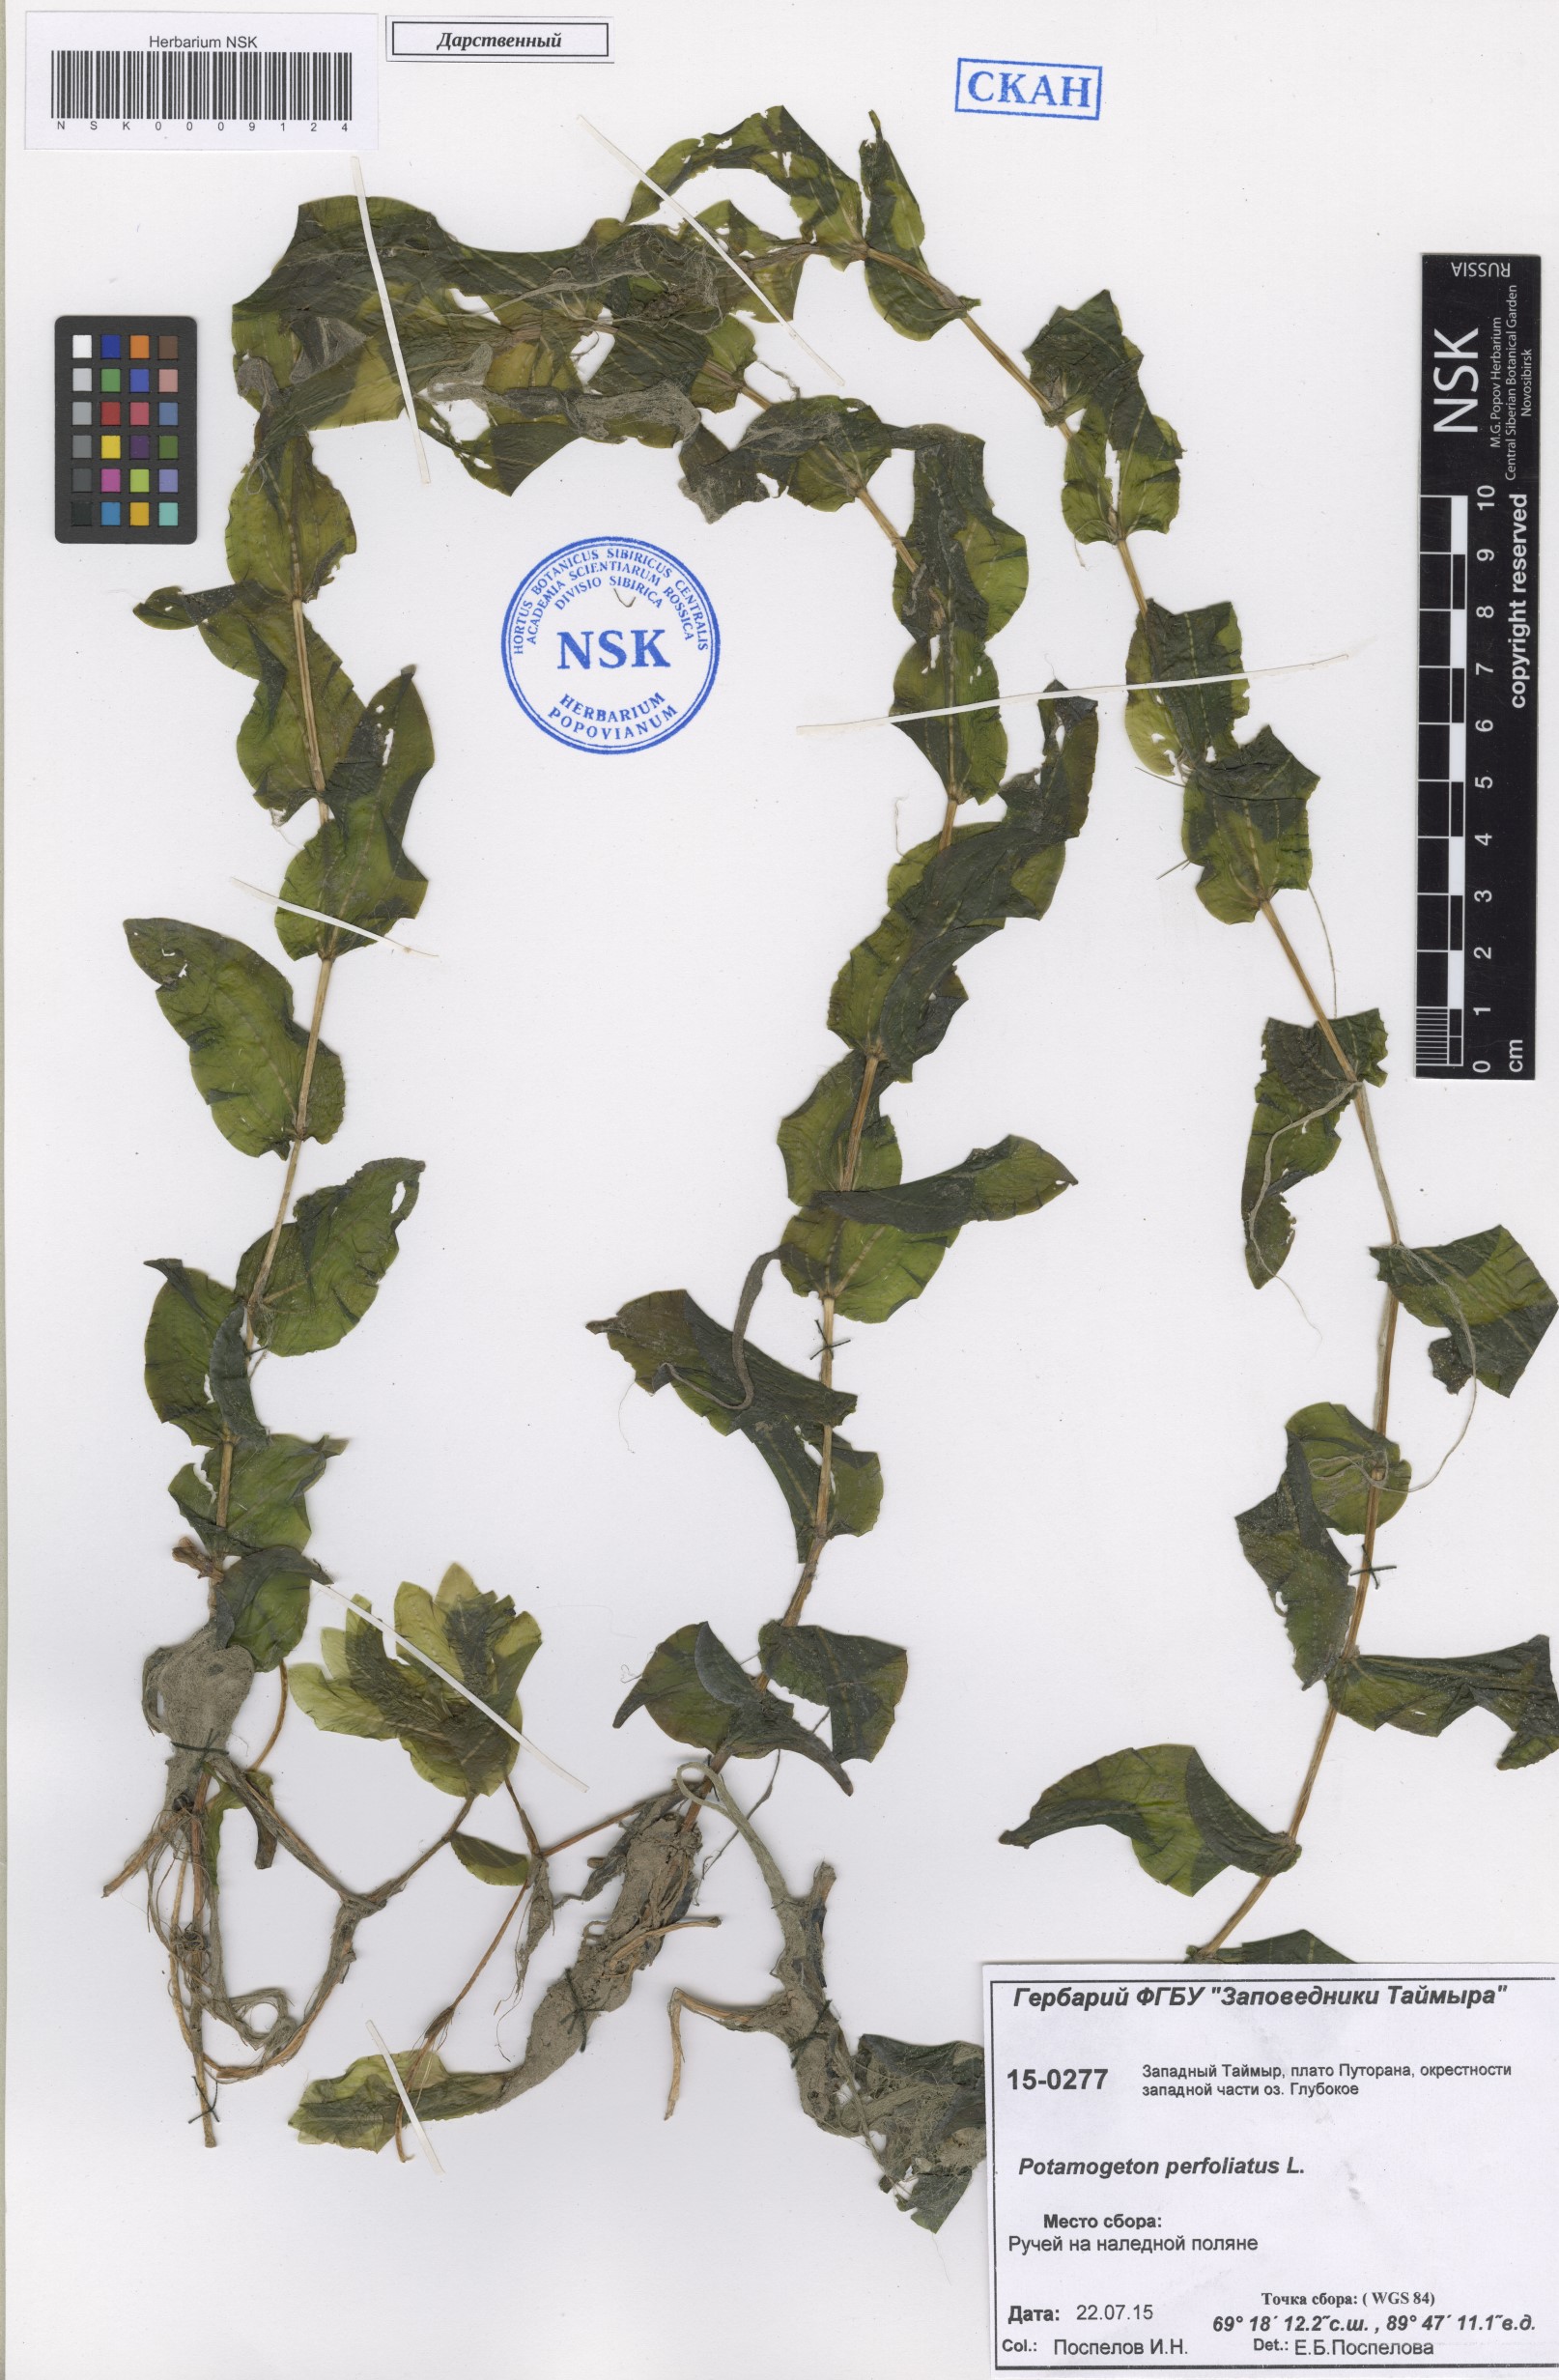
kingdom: Plantae
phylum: Tracheophyta
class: Liliopsida
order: Alismatales
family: Potamogetonaceae
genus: Potamogeton
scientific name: Potamogeton perfoliatus
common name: Perfoliate pondweed
